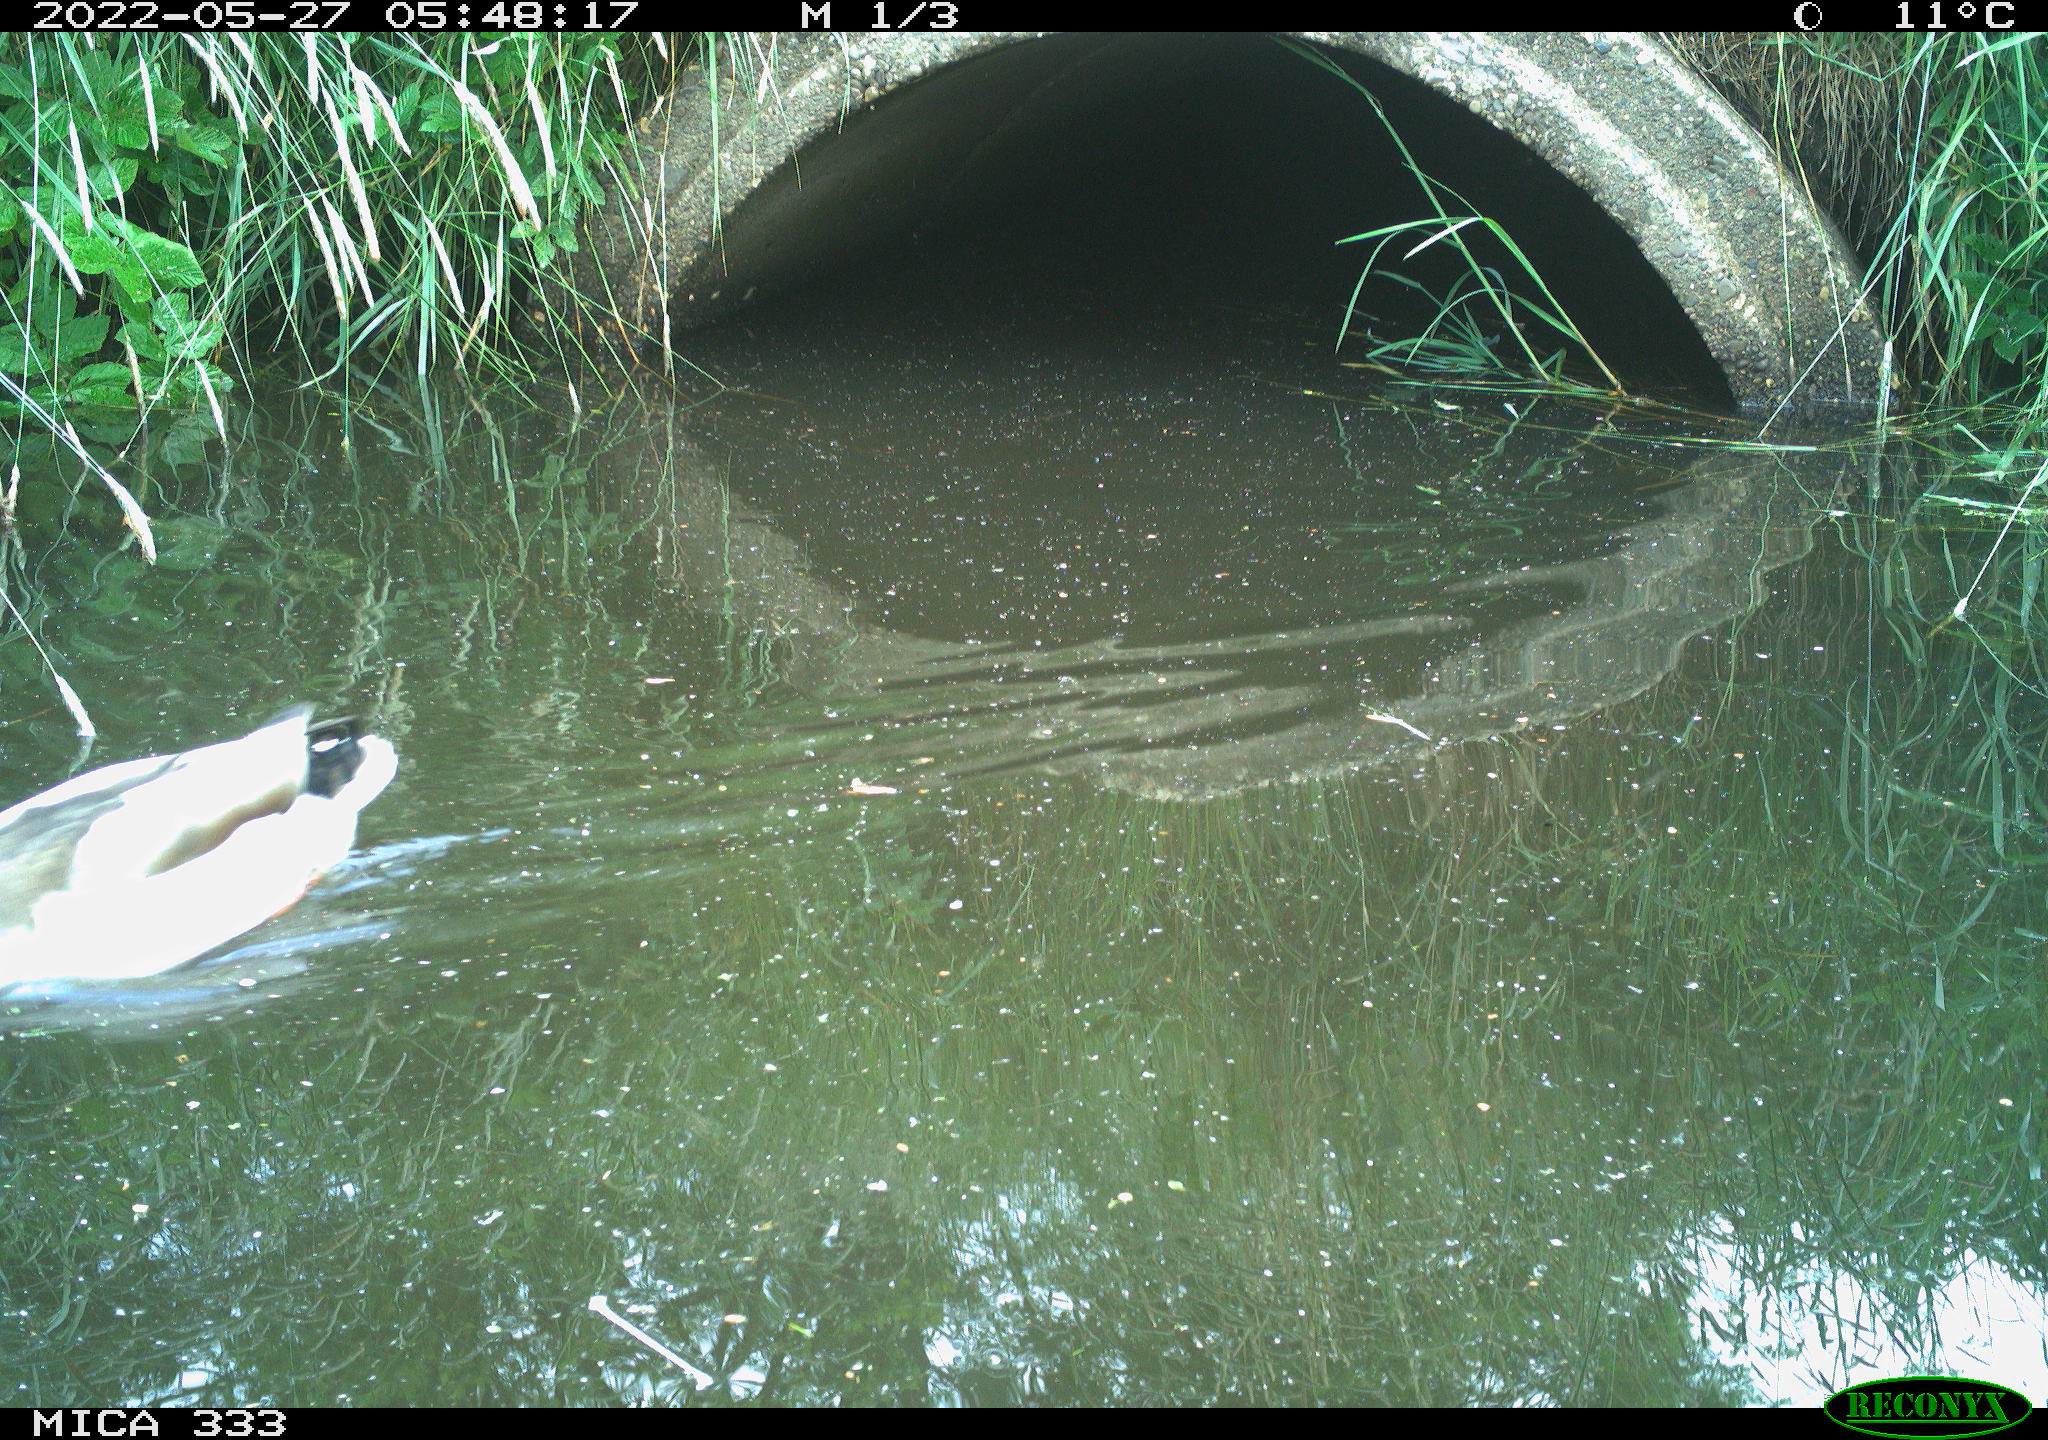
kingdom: Animalia
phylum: Chordata
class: Aves
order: Anseriformes
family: Anatidae
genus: Anas
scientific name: Anas platyrhynchos
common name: Mallard
